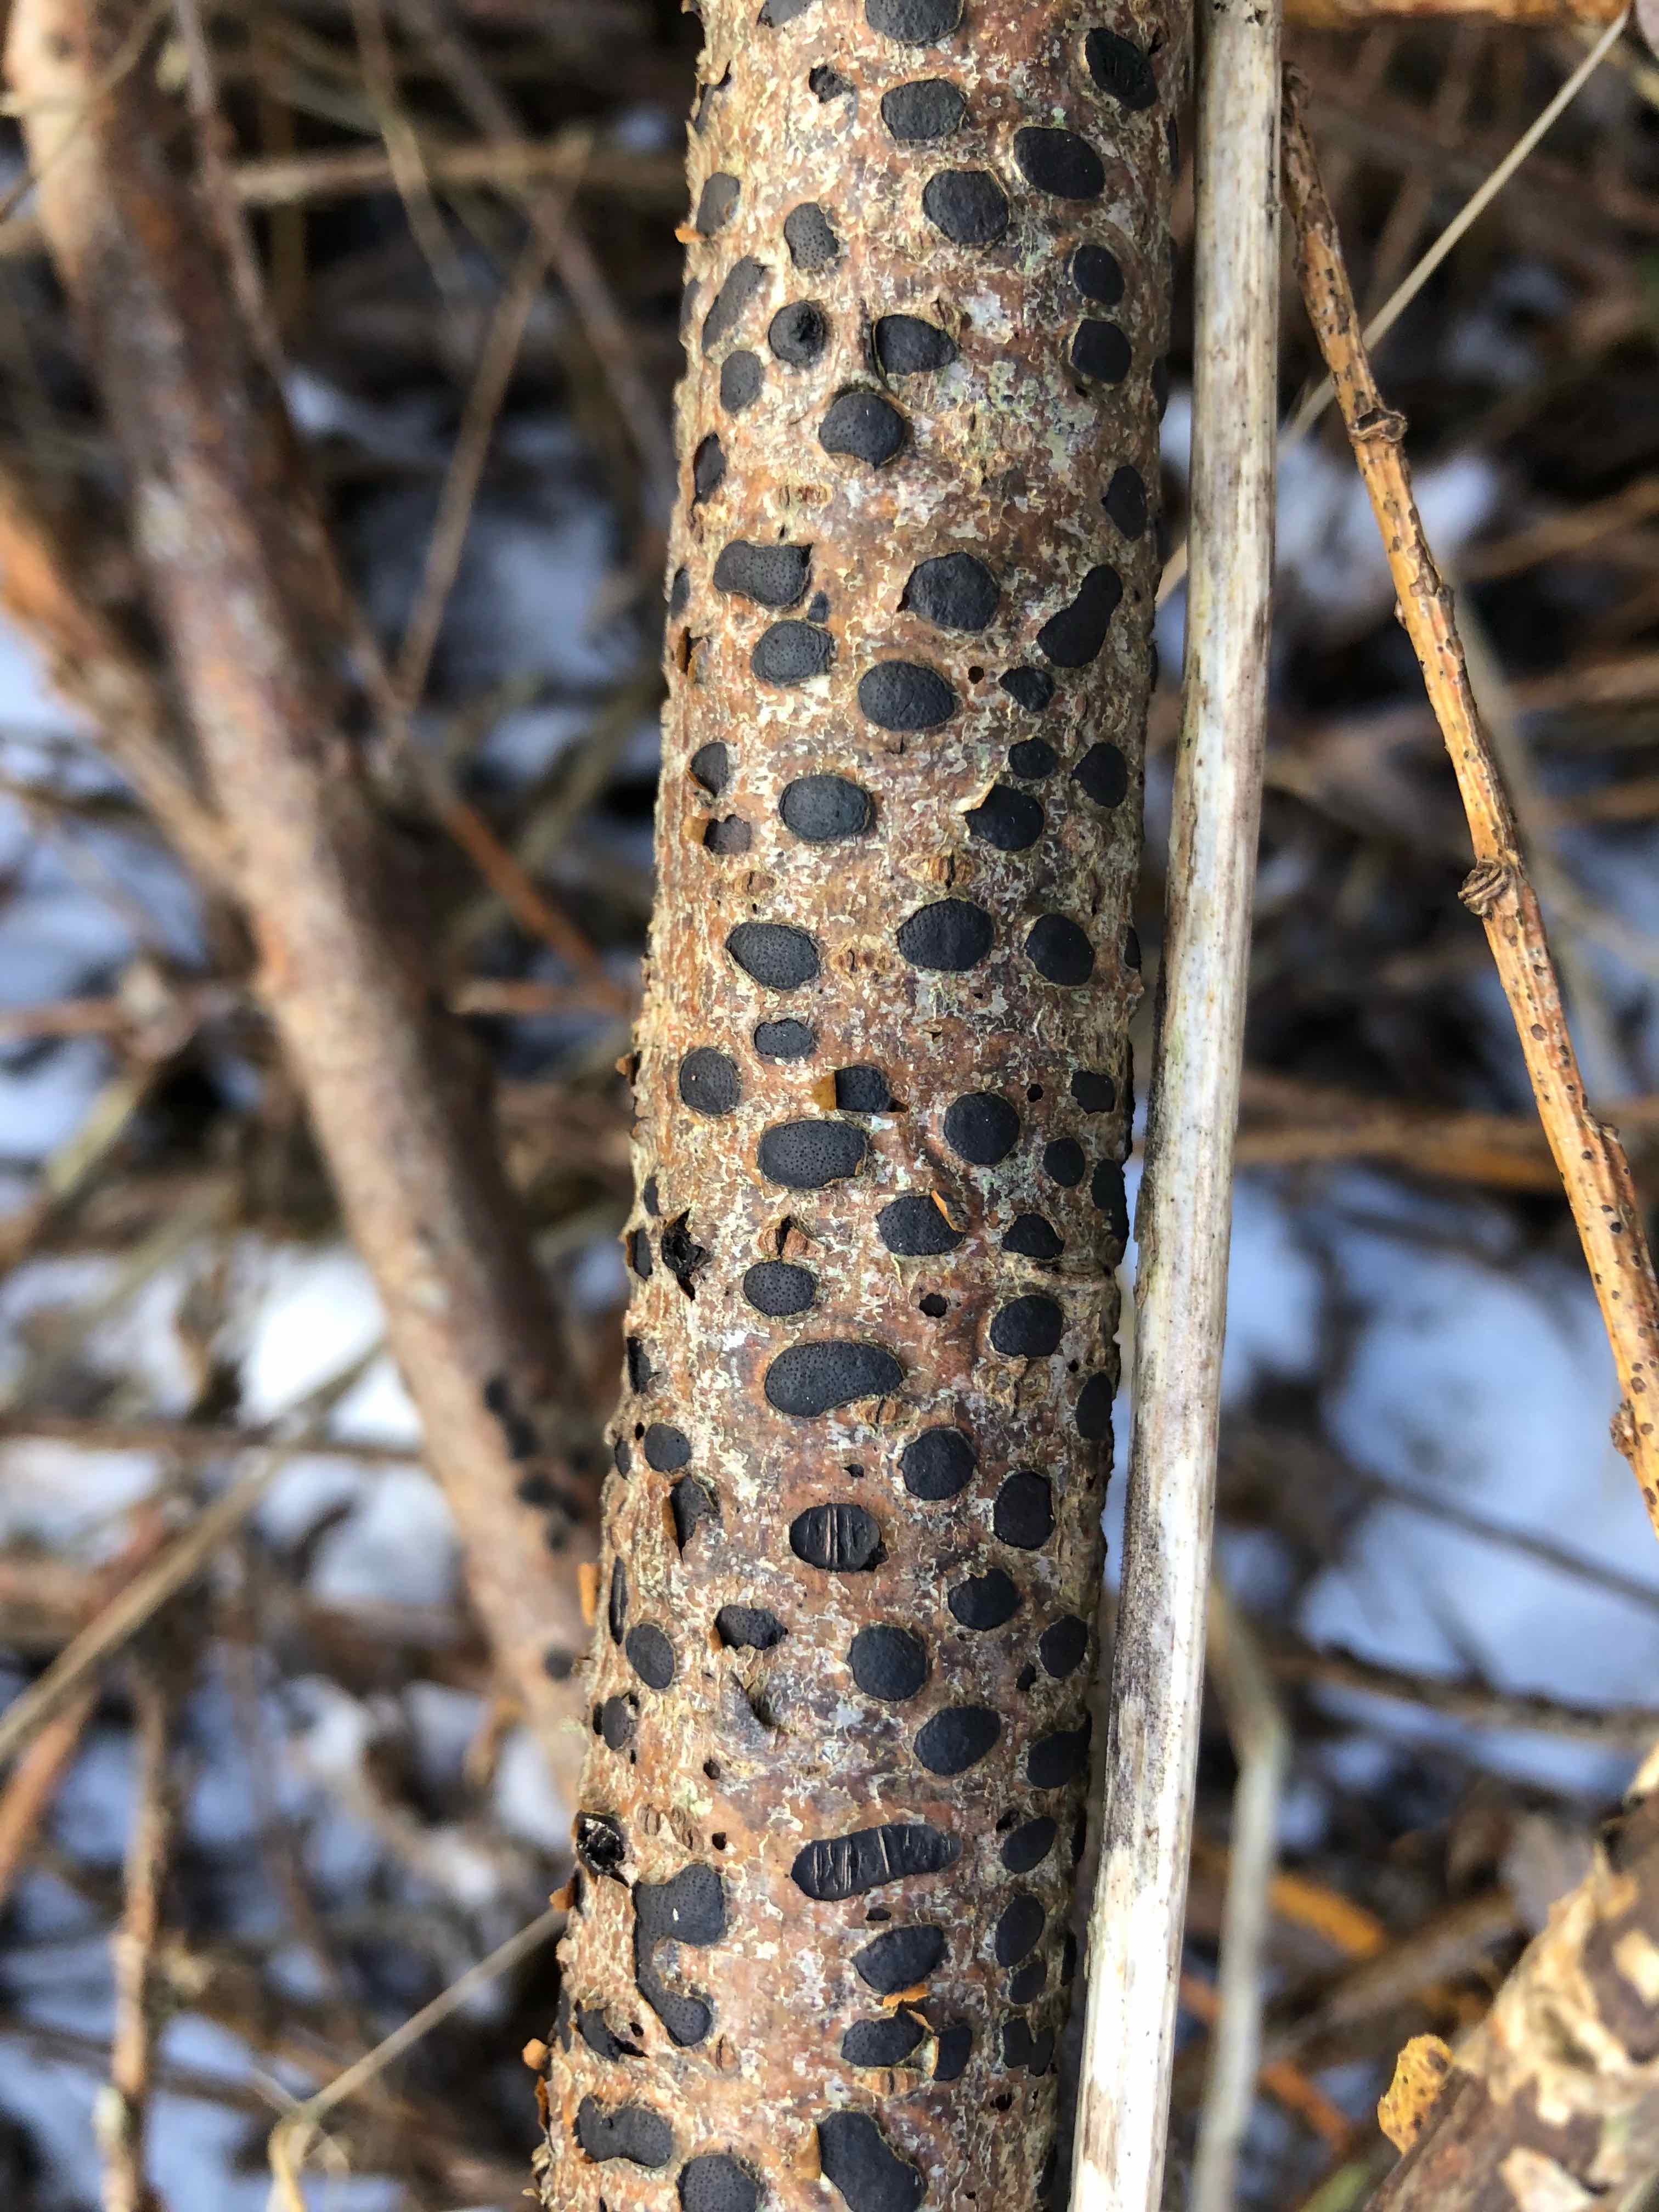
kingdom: Fungi
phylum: Ascomycota
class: Sordariomycetes
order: Xylariales
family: Diatrypaceae
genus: Diatrype
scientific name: Diatrype bullata
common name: pile-kulskorpe
